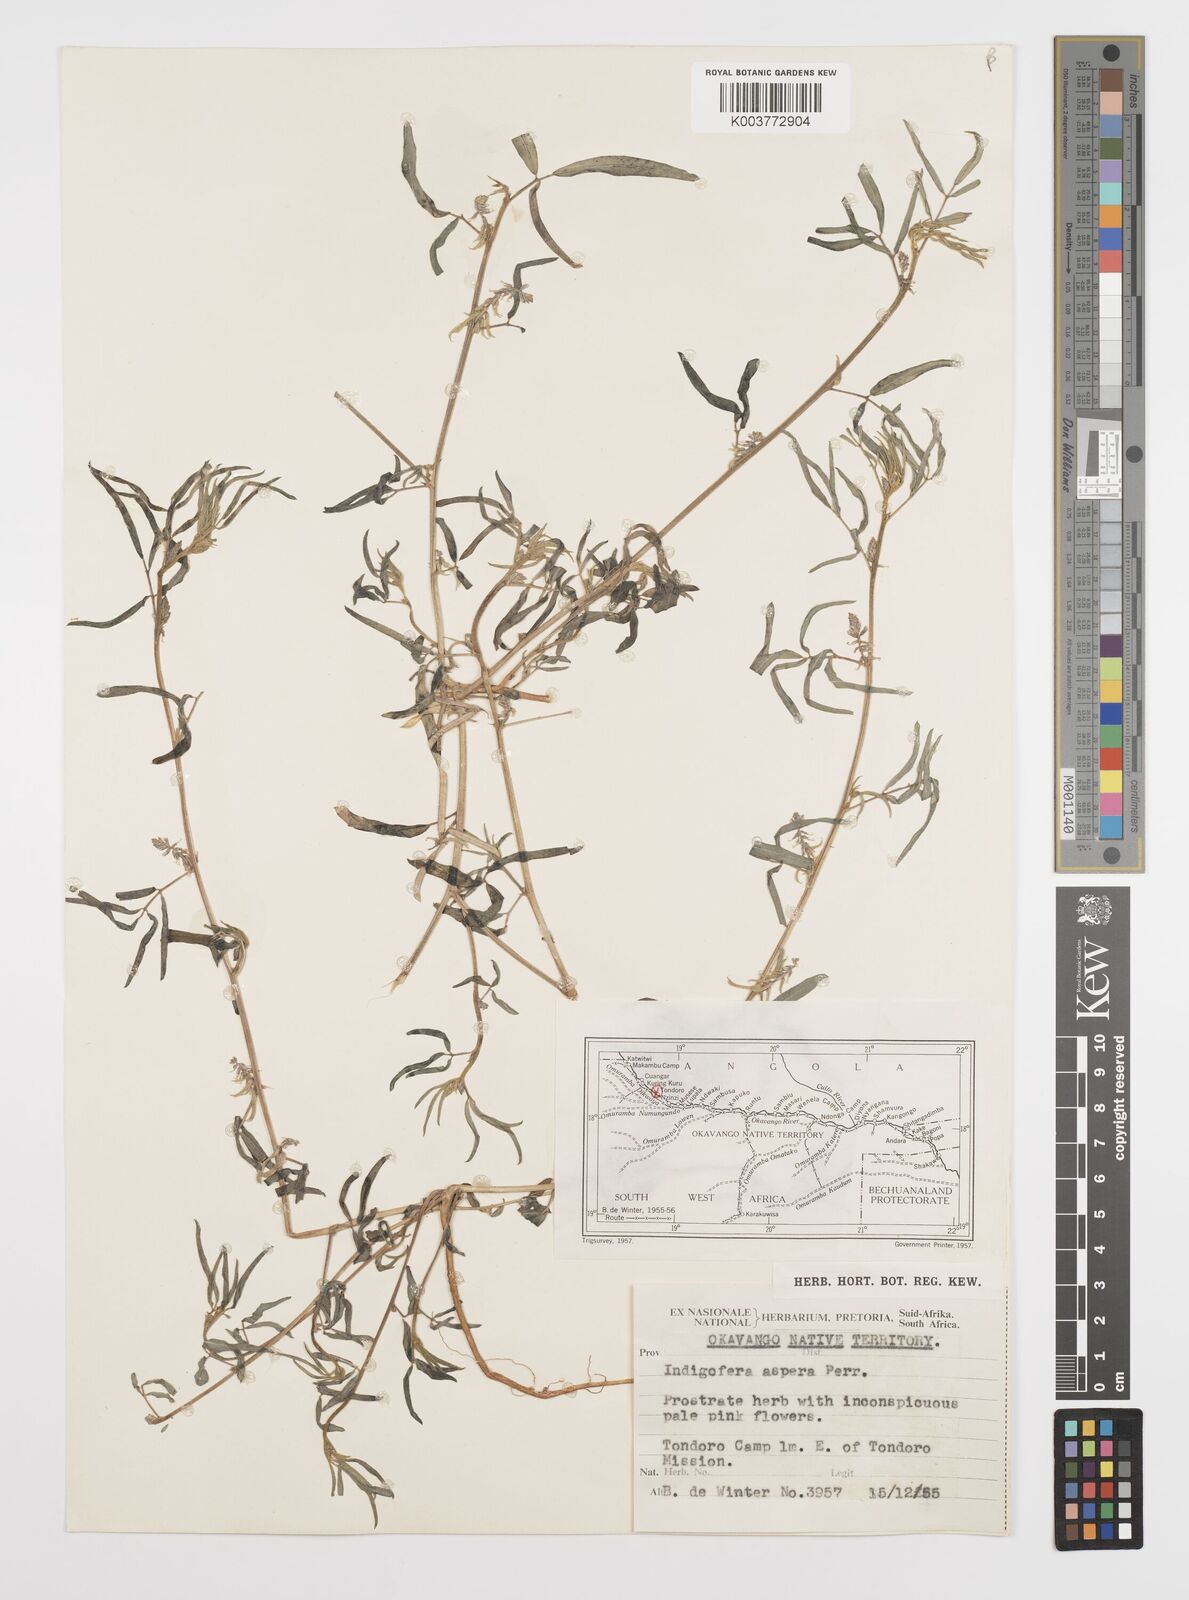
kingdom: Plantae
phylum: Tracheophyta
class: Magnoliopsida
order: Fabales
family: Fabaceae
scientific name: Fabaceae
